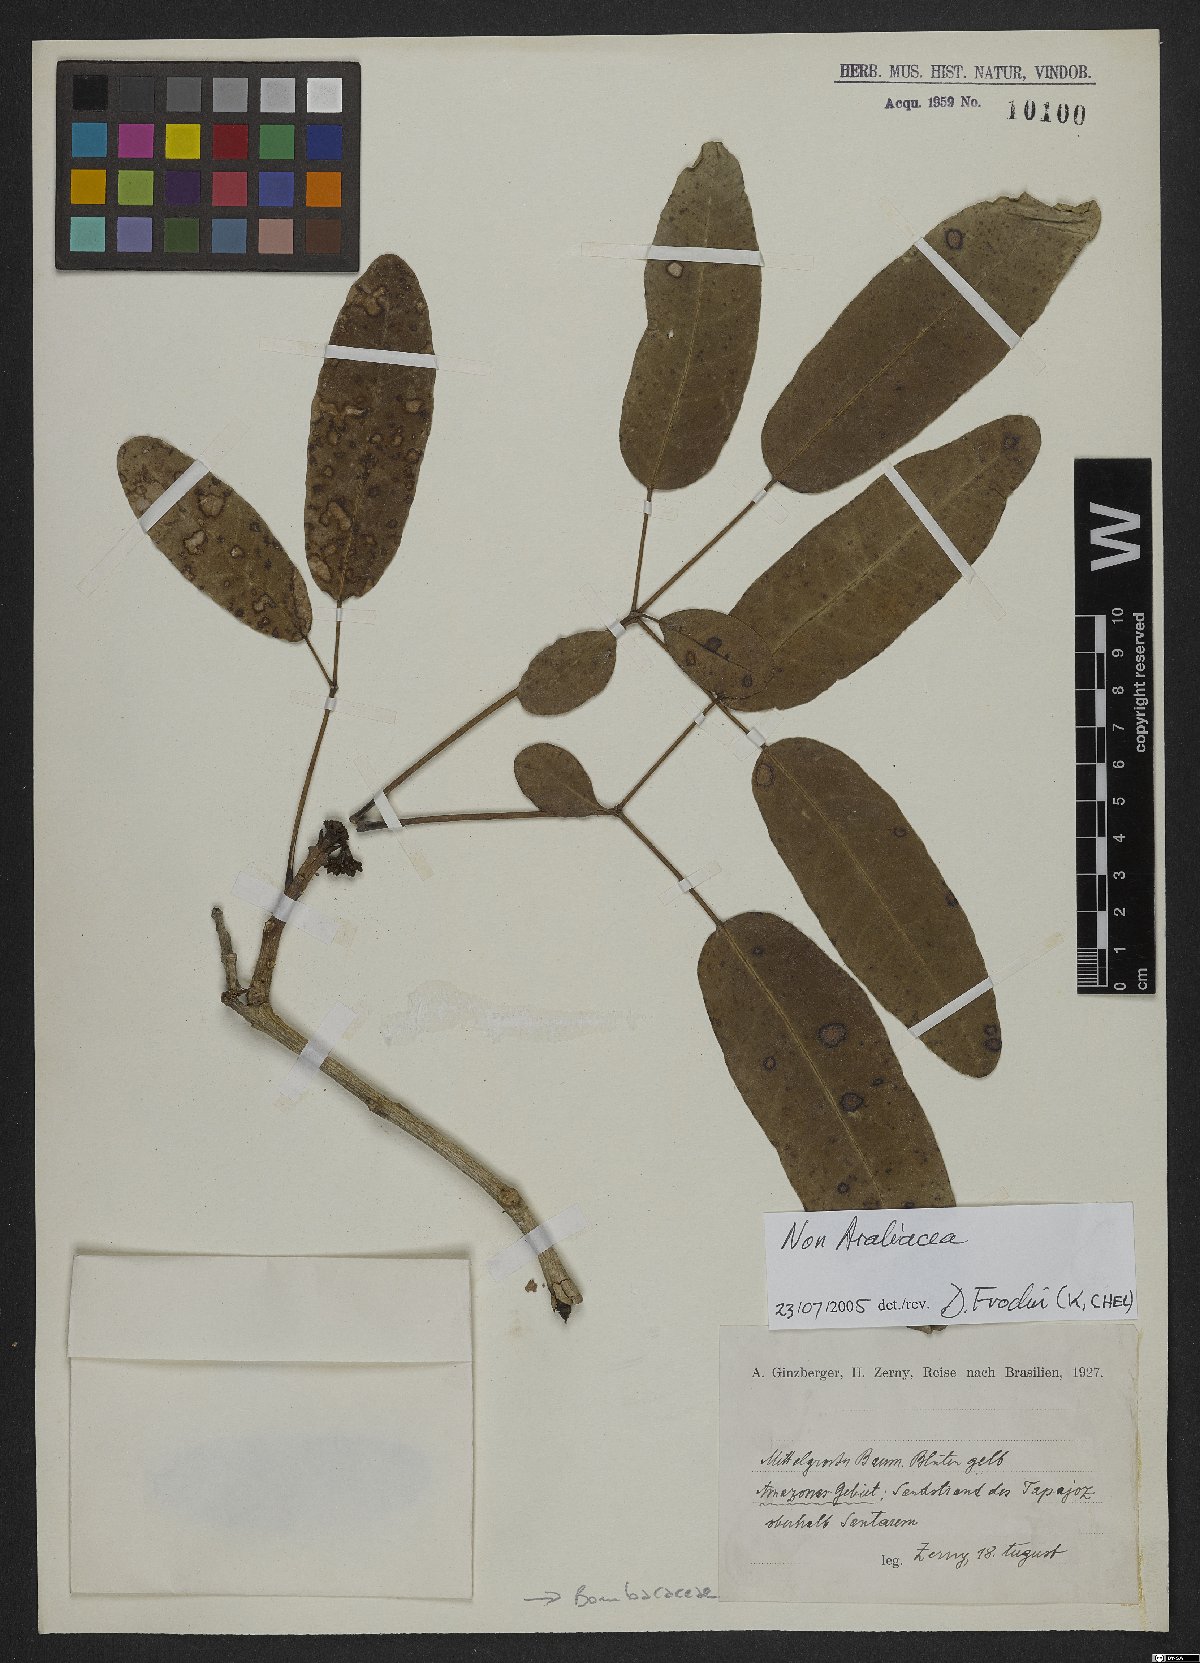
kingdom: Plantae
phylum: Tracheophyta
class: Magnoliopsida
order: Malvales
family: Malvaceae
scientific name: Malvaceae
